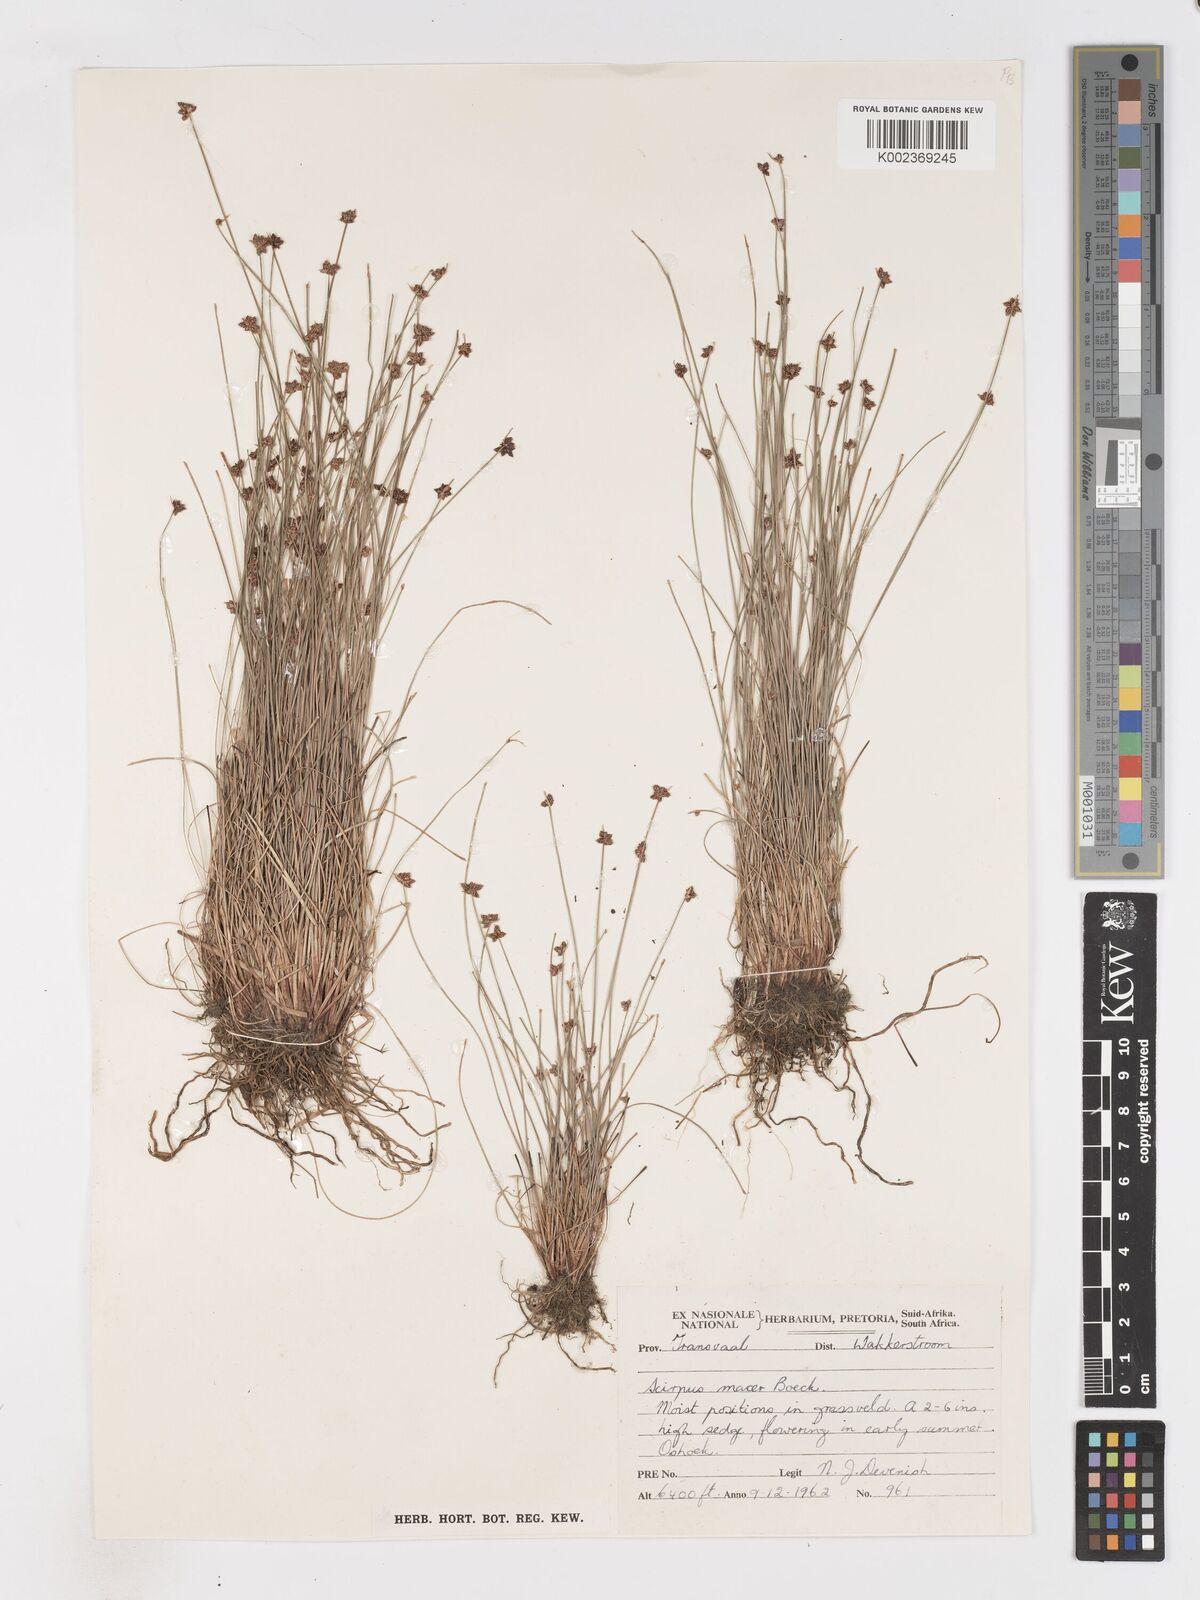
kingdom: Plantae
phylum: Tracheophyta
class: Liliopsida
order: Poales
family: Cyperaceae
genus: Isolepis
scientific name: Isolepis costata
